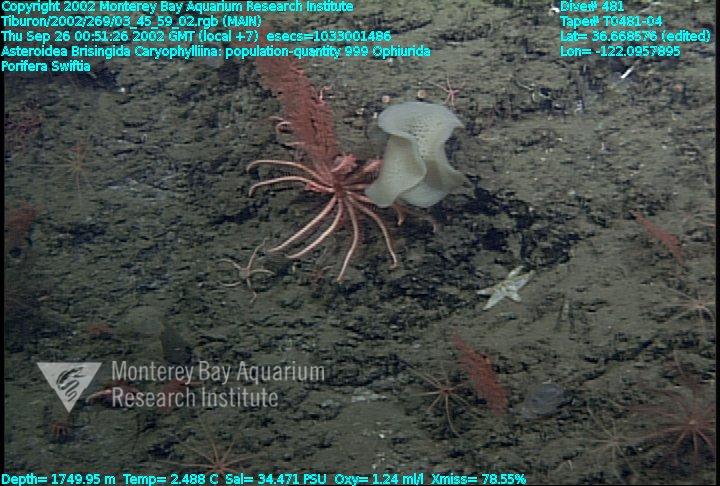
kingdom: Animalia
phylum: Porifera
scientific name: Porifera
